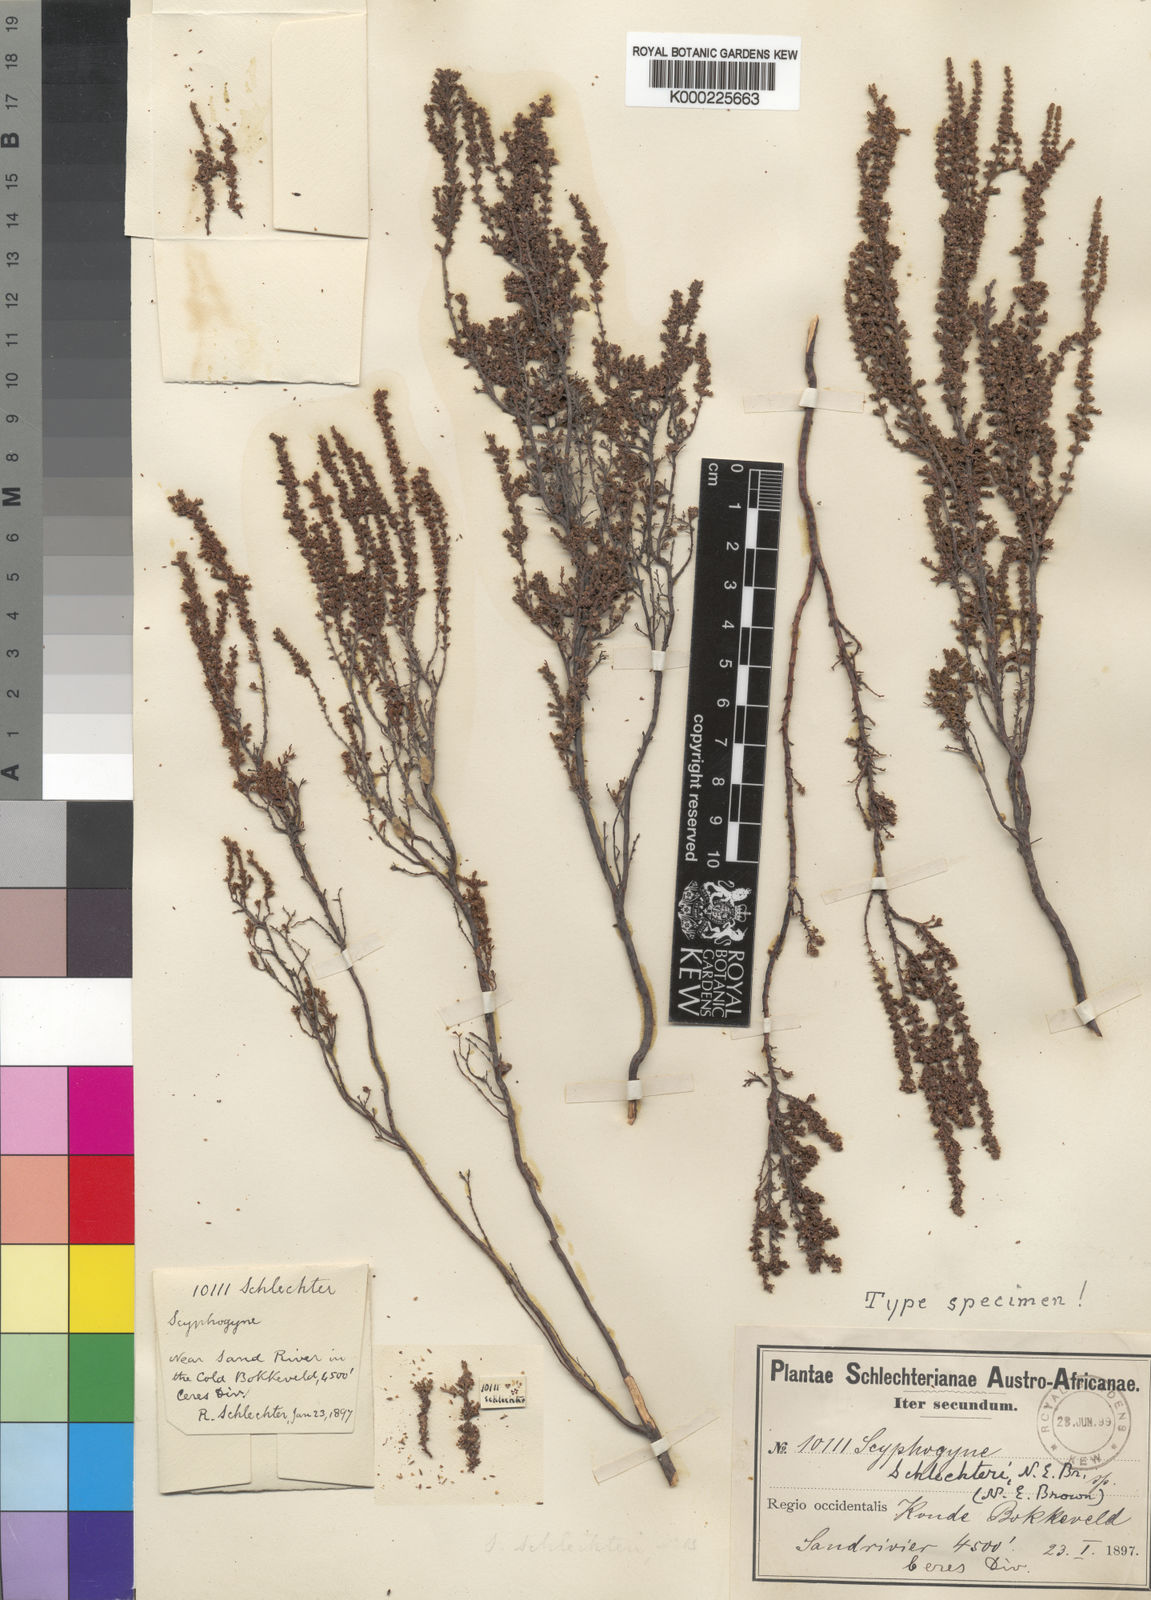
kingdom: Plantae
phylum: Tracheophyta
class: Magnoliopsida
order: Ericales
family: Ericaceae
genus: Erica
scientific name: Erica muscosa
